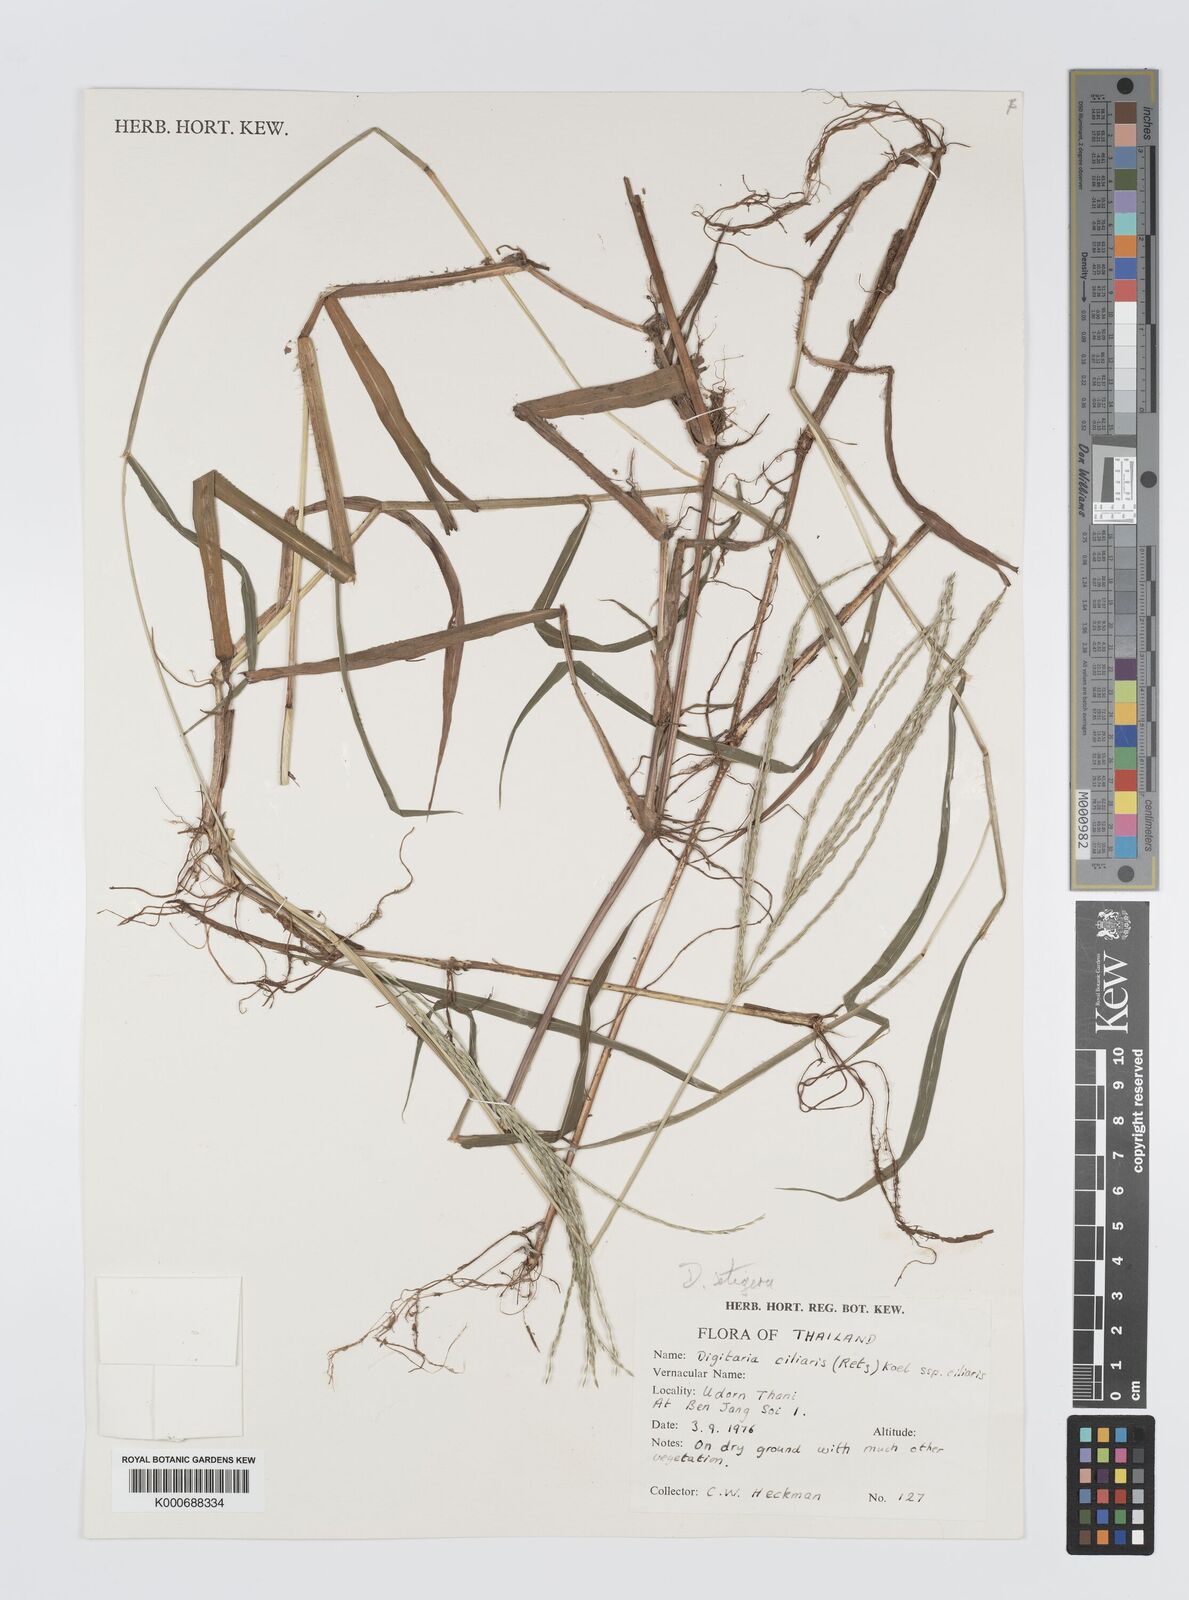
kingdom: Plantae
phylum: Tracheophyta
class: Liliopsida
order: Poales
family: Poaceae
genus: Digitaria
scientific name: Digitaria
